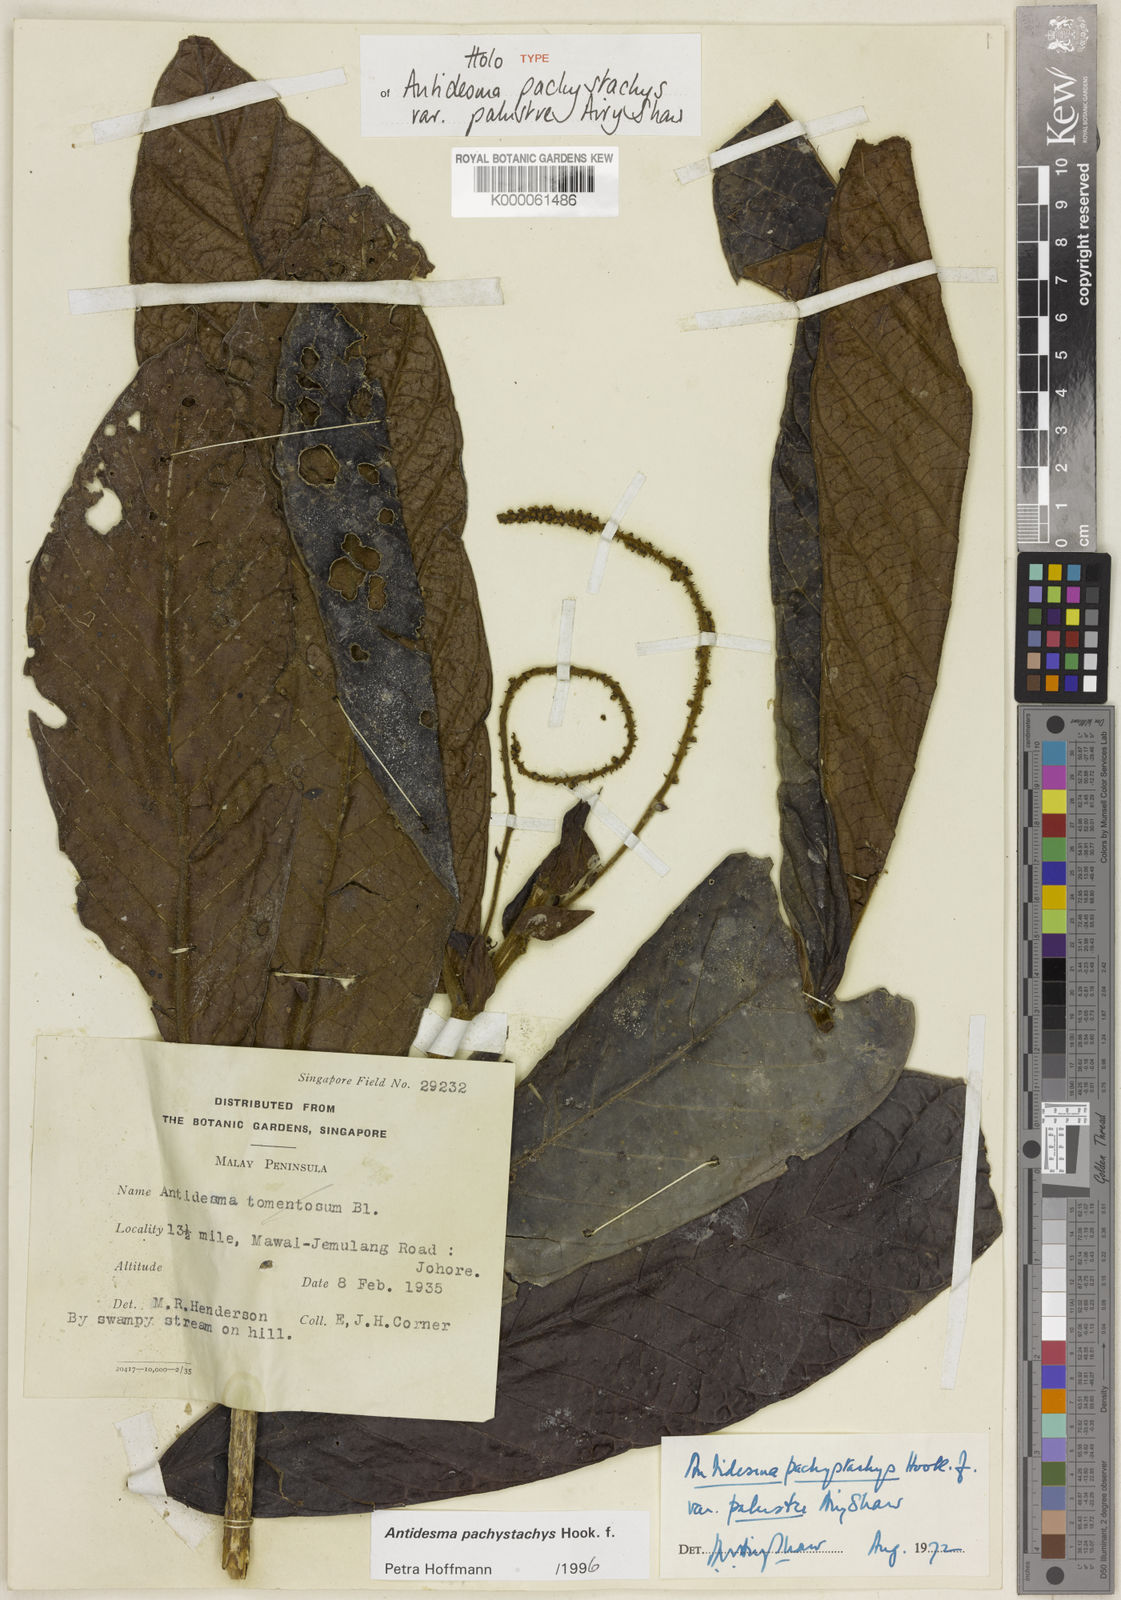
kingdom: Plantae
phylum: Tracheophyta
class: Magnoliopsida
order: Malpighiales
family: Phyllanthaceae
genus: Antidesma
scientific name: Antidesma pachystachys
